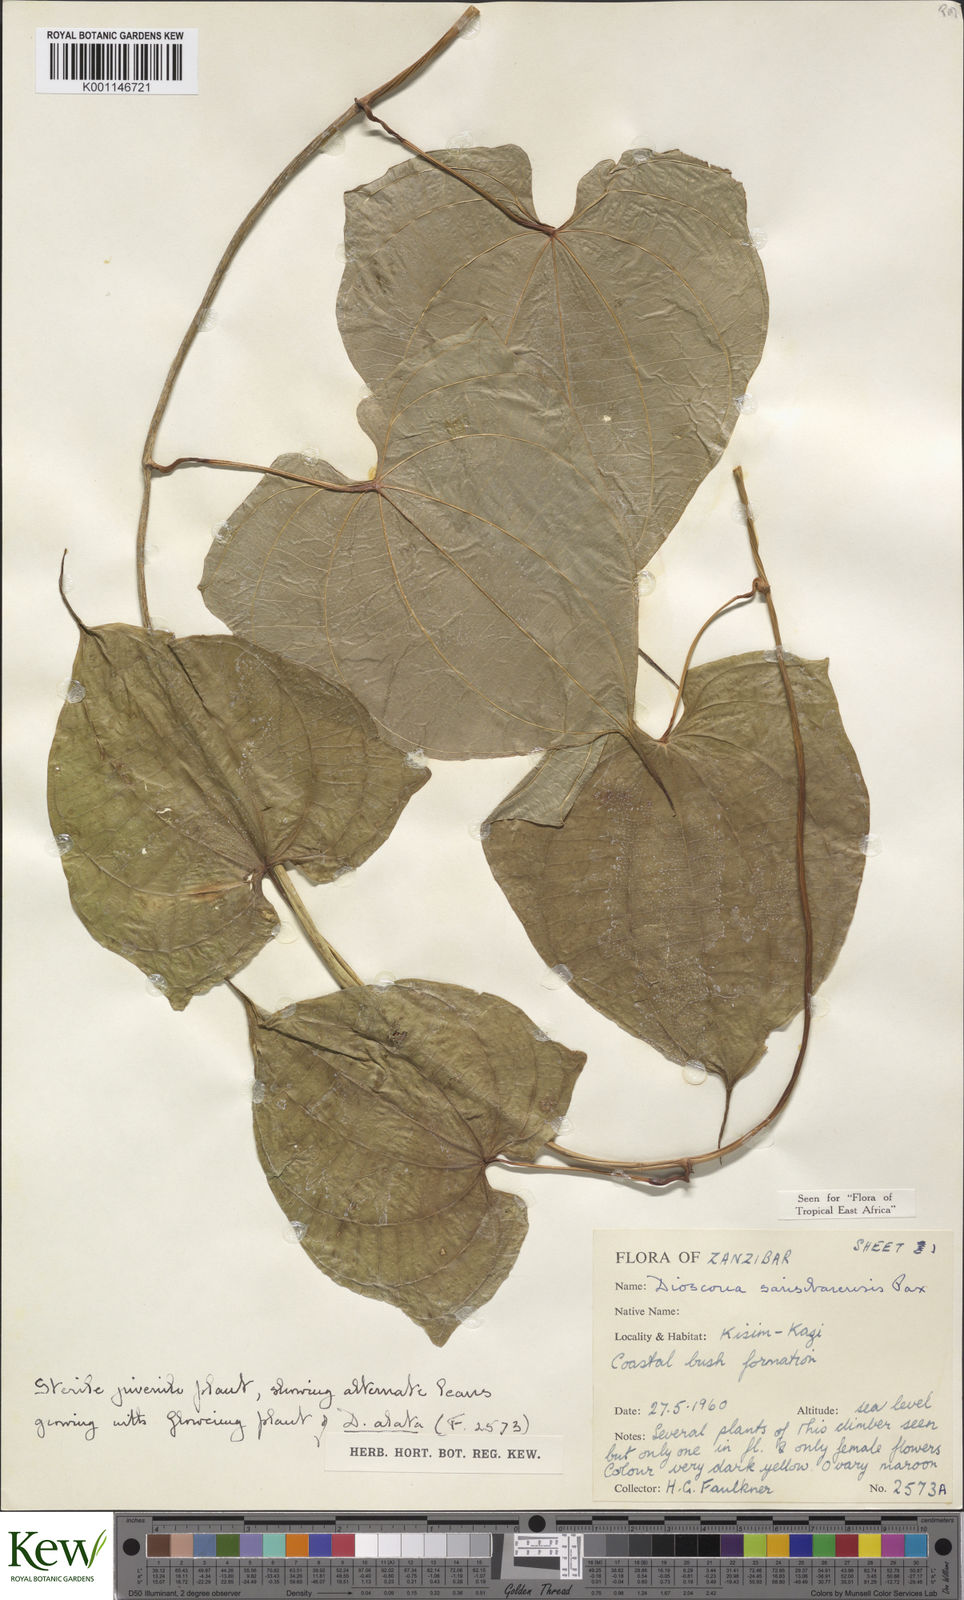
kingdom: Plantae
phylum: Tracheophyta
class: Liliopsida
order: Dioscoreales
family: Dioscoreaceae
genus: Dioscorea
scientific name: Dioscorea sansibarensis
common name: Zanzibar yam
